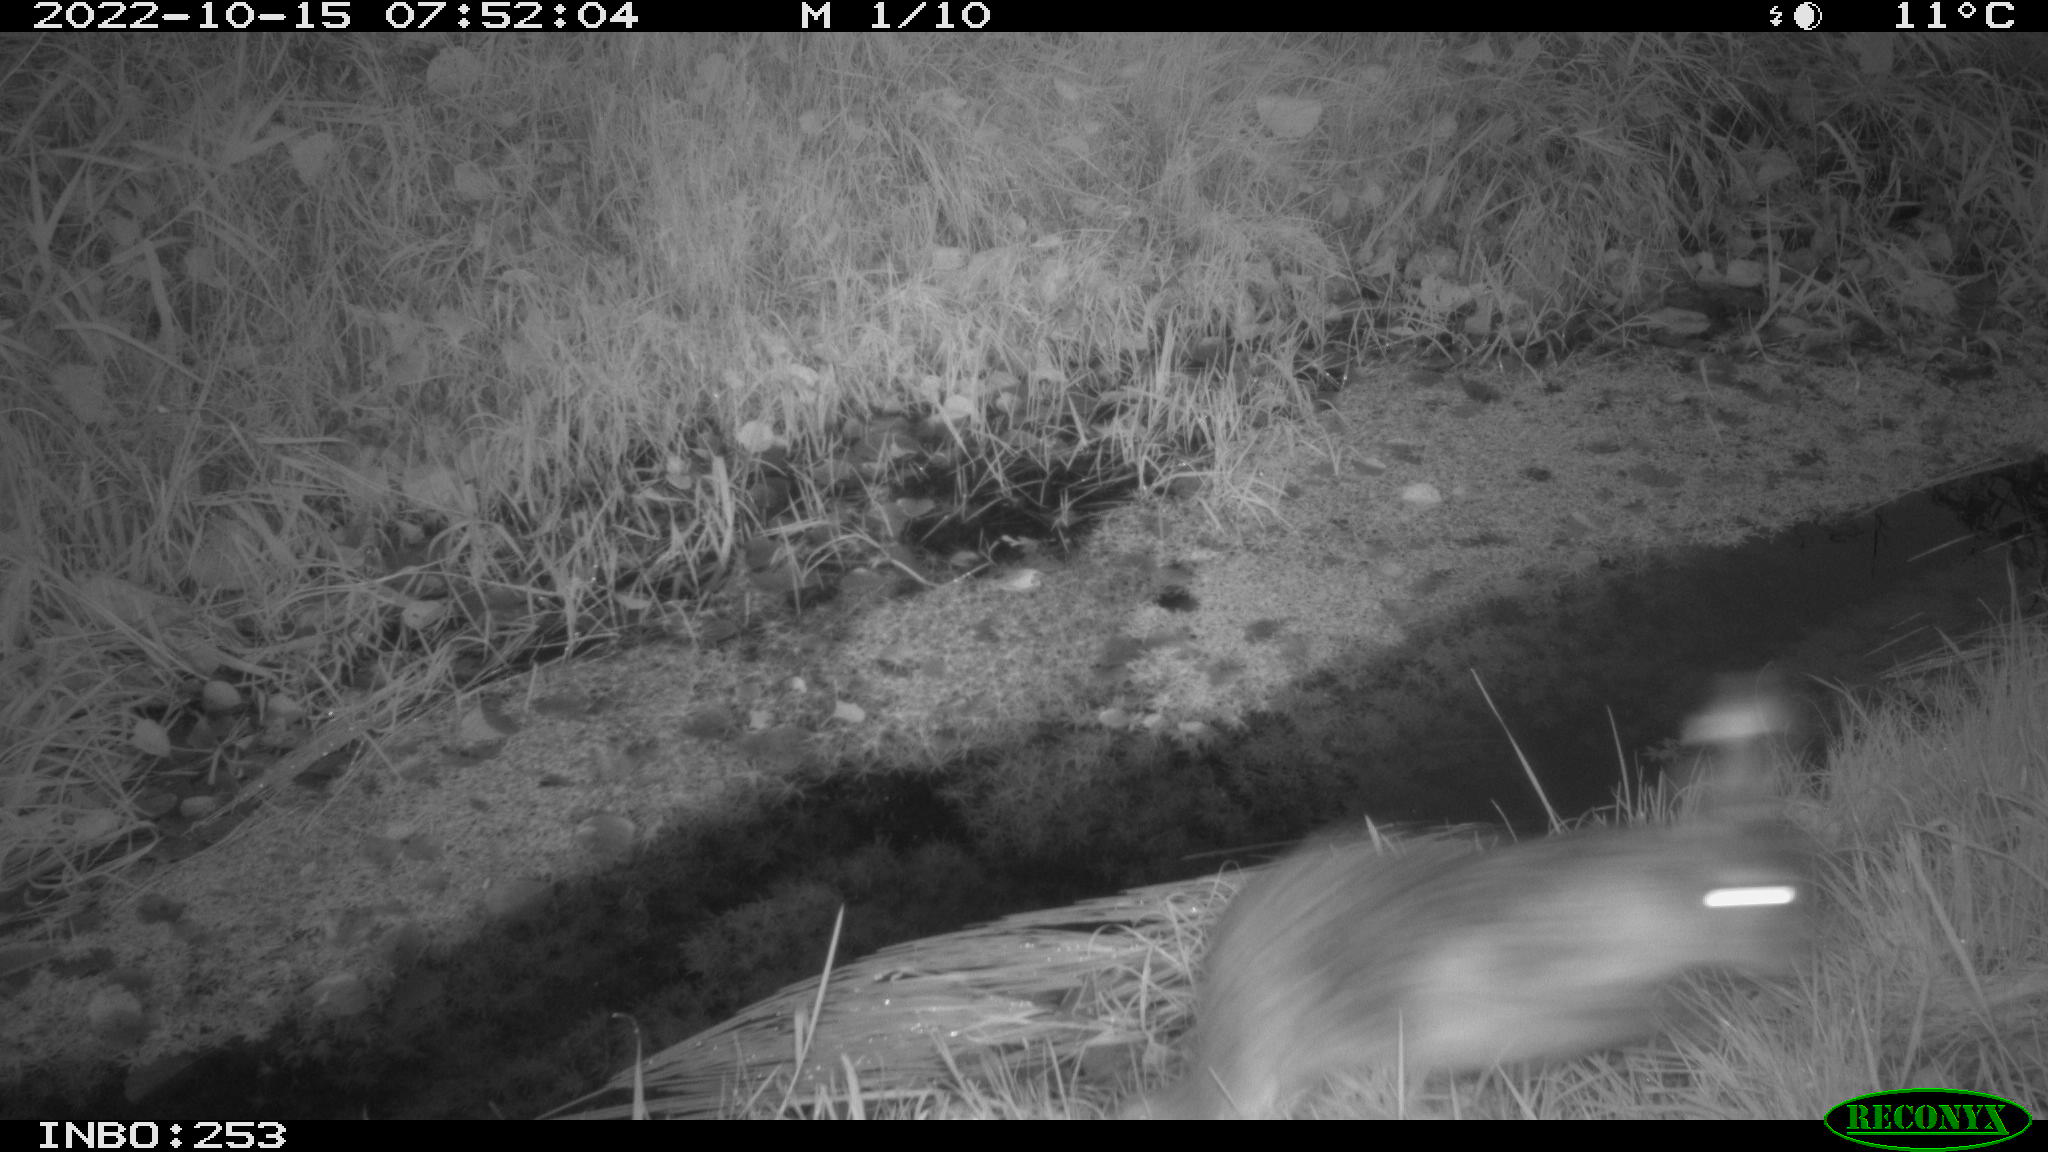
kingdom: Animalia
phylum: Chordata
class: Mammalia
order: Lagomorpha
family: Leporidae
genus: Lepus
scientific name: Lepus europaeus
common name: European hare
